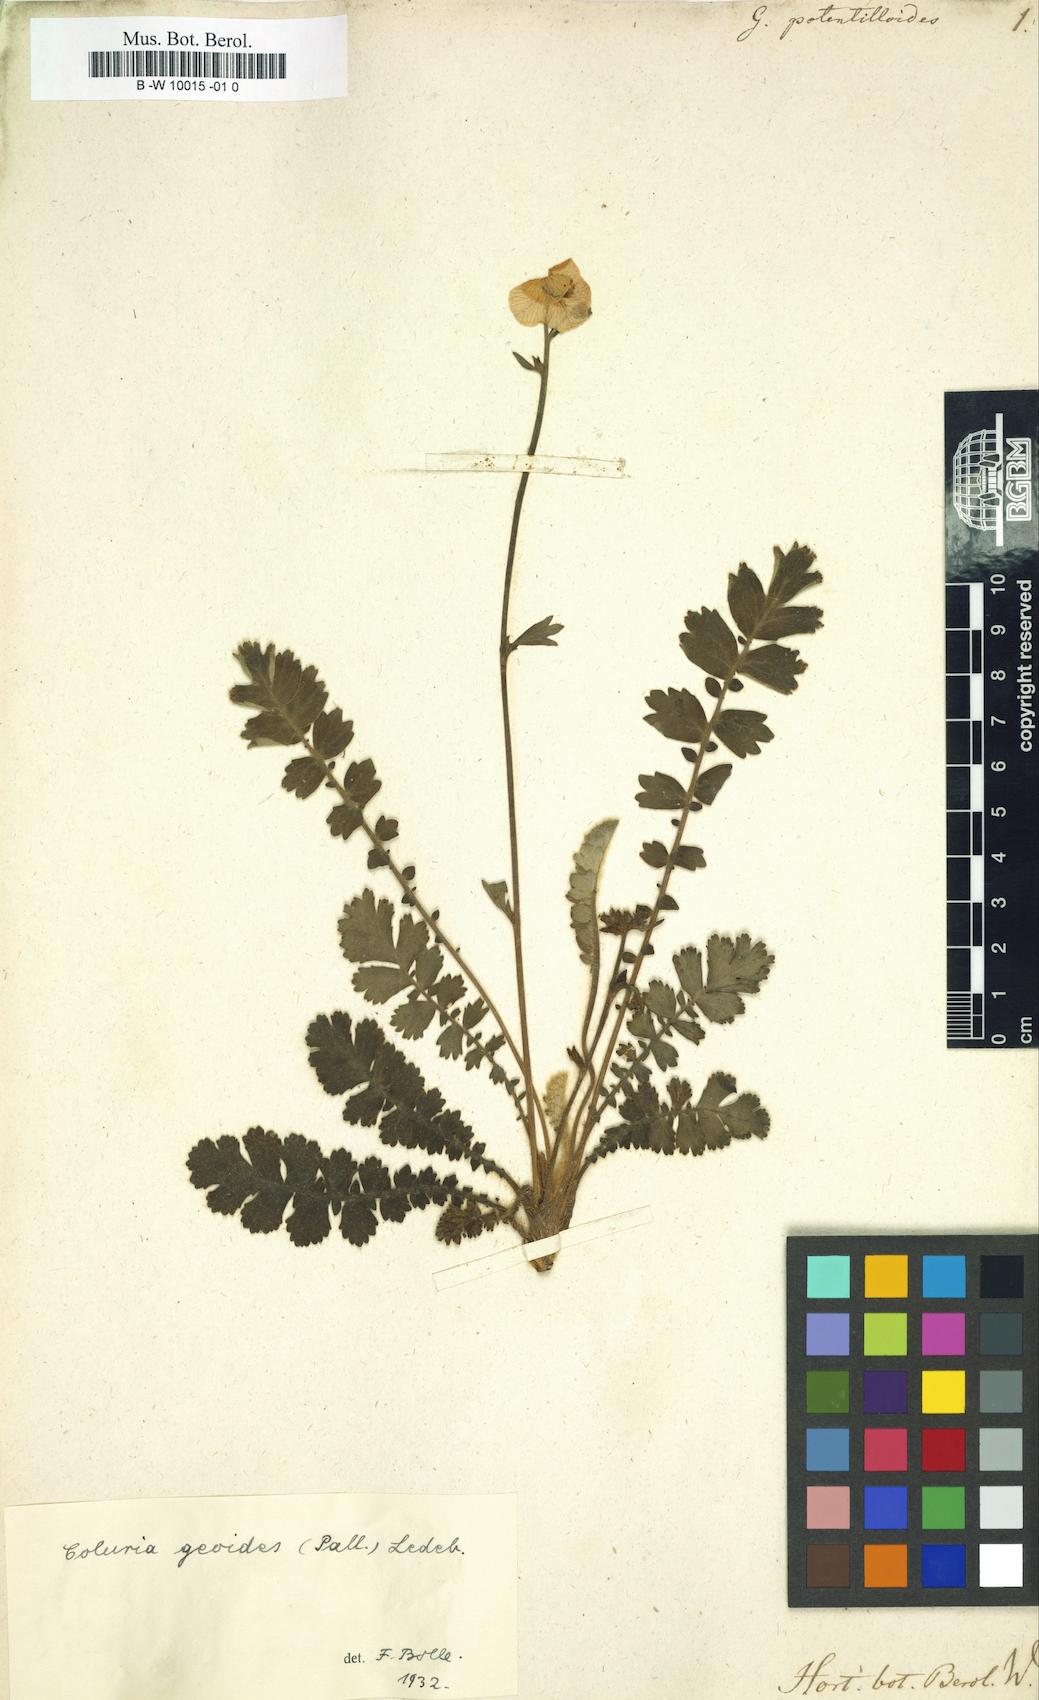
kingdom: Plantae
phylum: Tracheophyta
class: Magnoliopsida
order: Rosales
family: Rosaceae
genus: Drymocallis
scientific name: Drymocallis geoides
